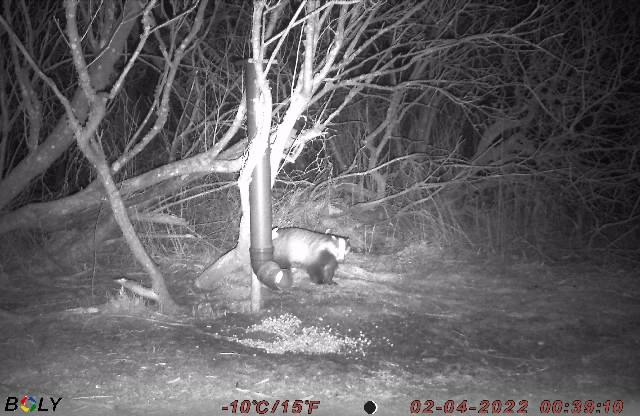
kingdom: Animalia
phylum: Chordata
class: Mammalia
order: Carnivora
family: Mustelidae
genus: Meles
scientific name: Meles meles
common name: Grævling
